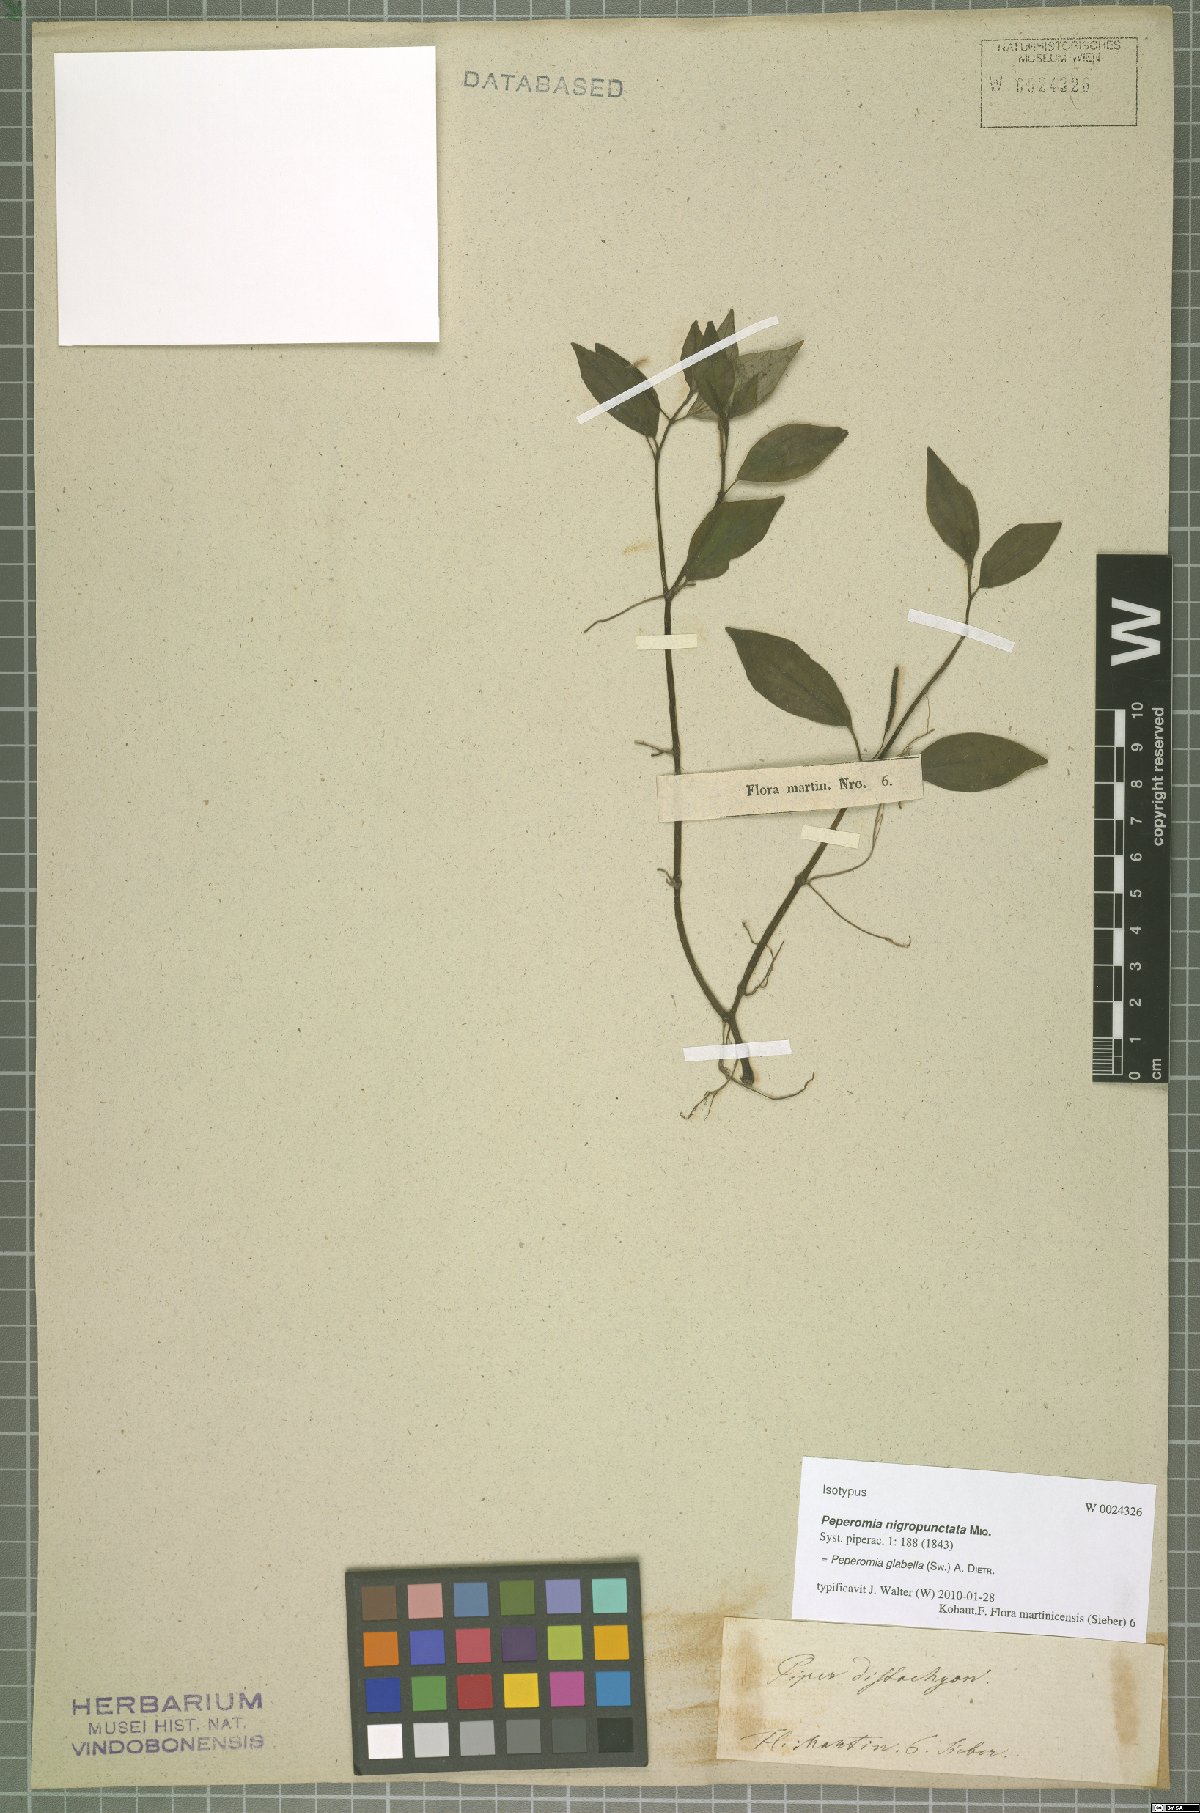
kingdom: Plantae
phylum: Tracheophyta
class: Magnoliopsida
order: Piperales
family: Piperaceae
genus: Peperomia
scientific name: Peperomia glabella
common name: Cypress peperomia
